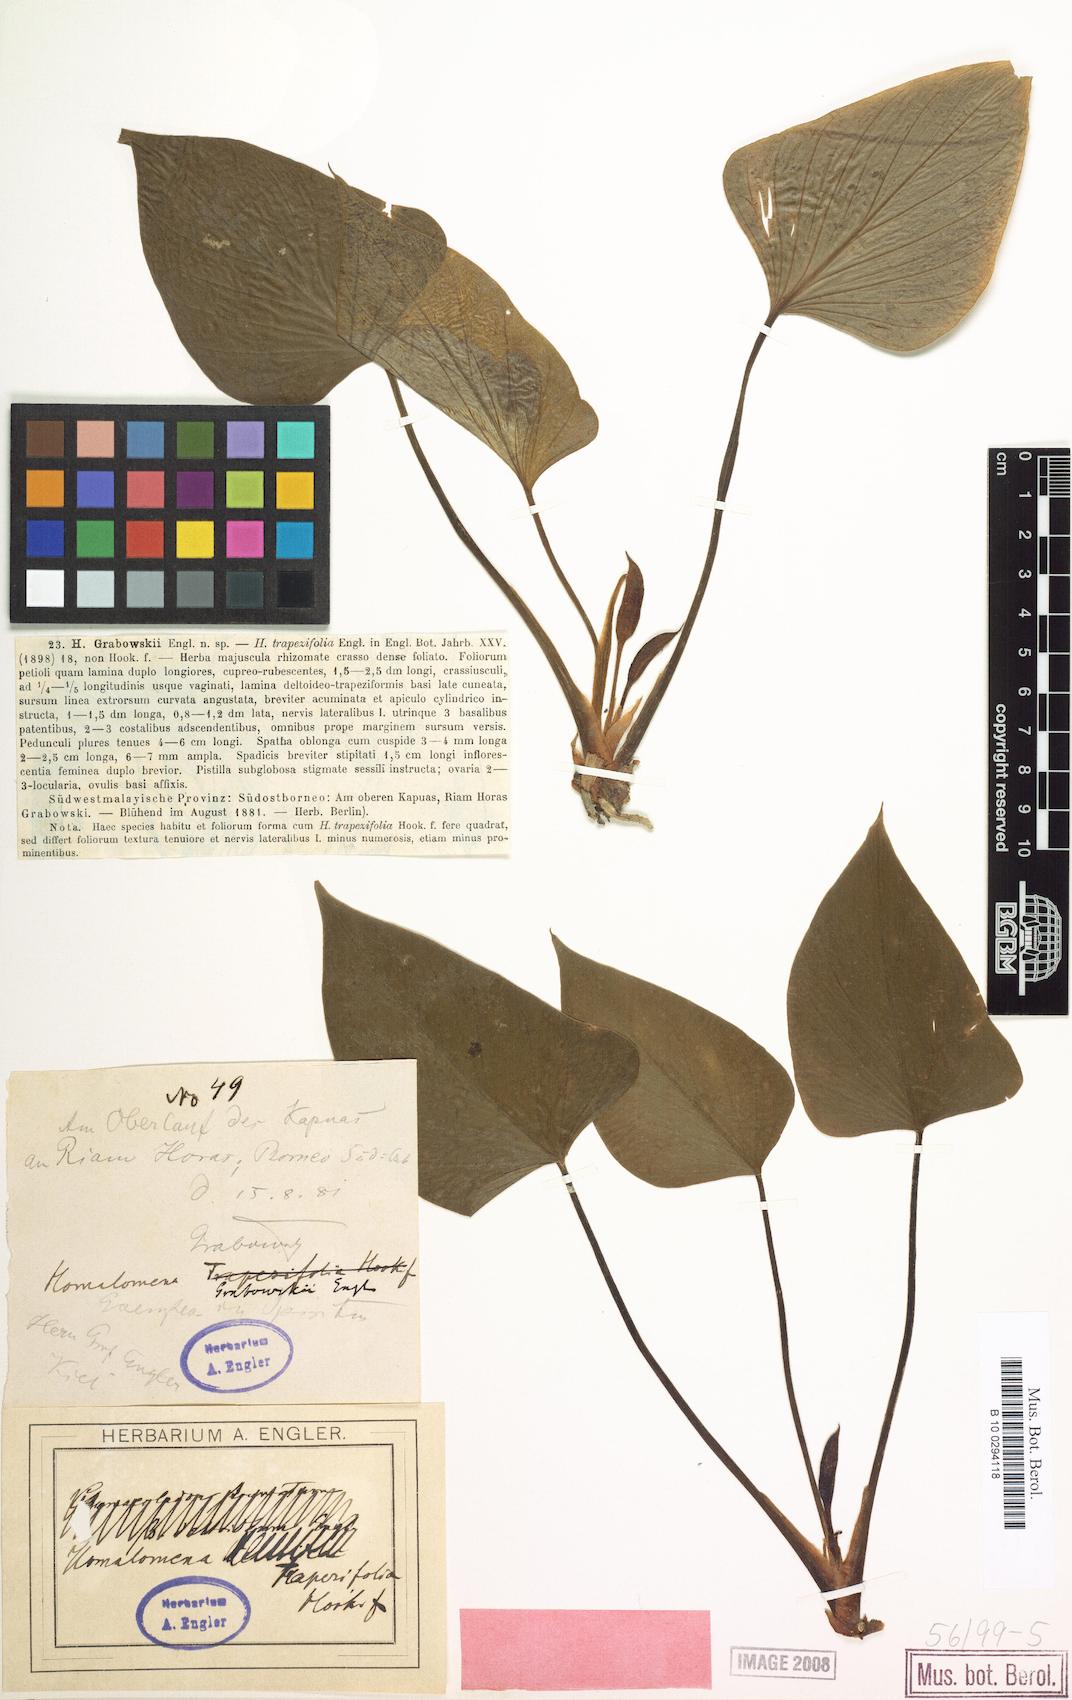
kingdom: Plantae
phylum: Tracheophyta
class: Liliopsida
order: Alismatales
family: Araceae
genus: Homalomena
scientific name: Homalomena griffithii
